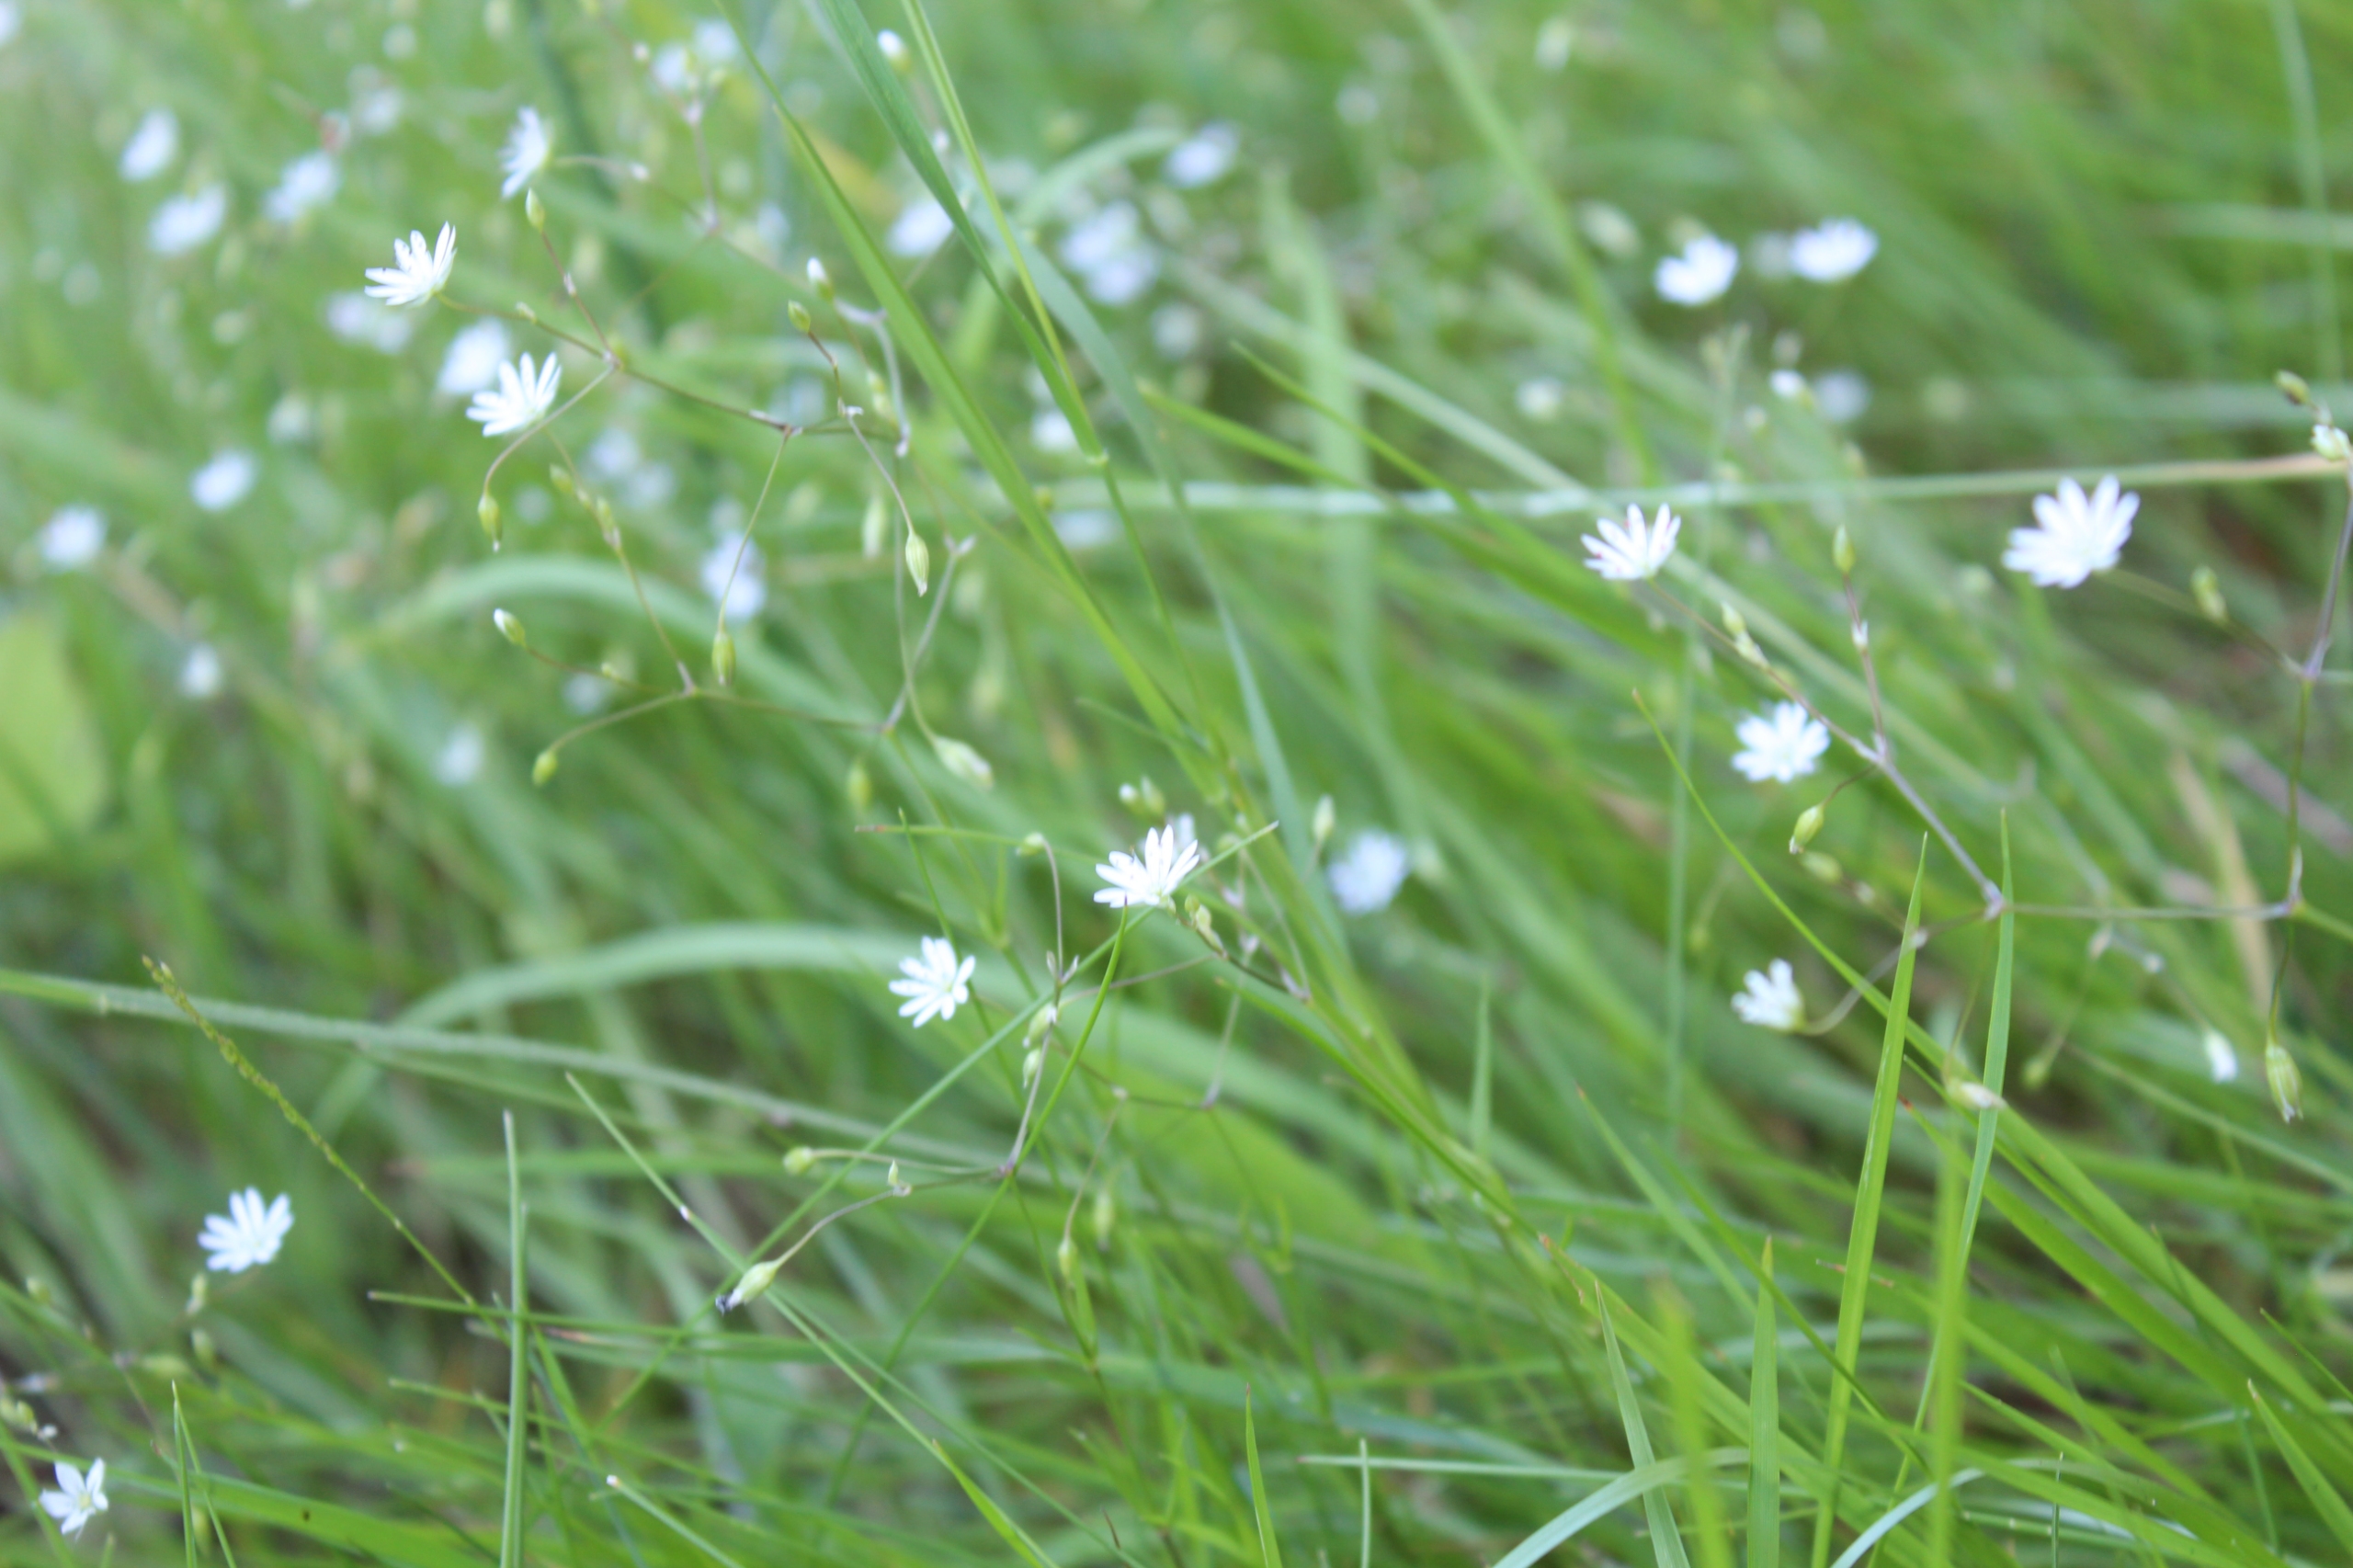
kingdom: Plantae
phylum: Tracheophyta
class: Magnoliopsida
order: Caryophyllales
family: Caryophyllaceae
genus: Stellaria
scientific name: Stellaria graminea
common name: Græsbladet fladstjerne
